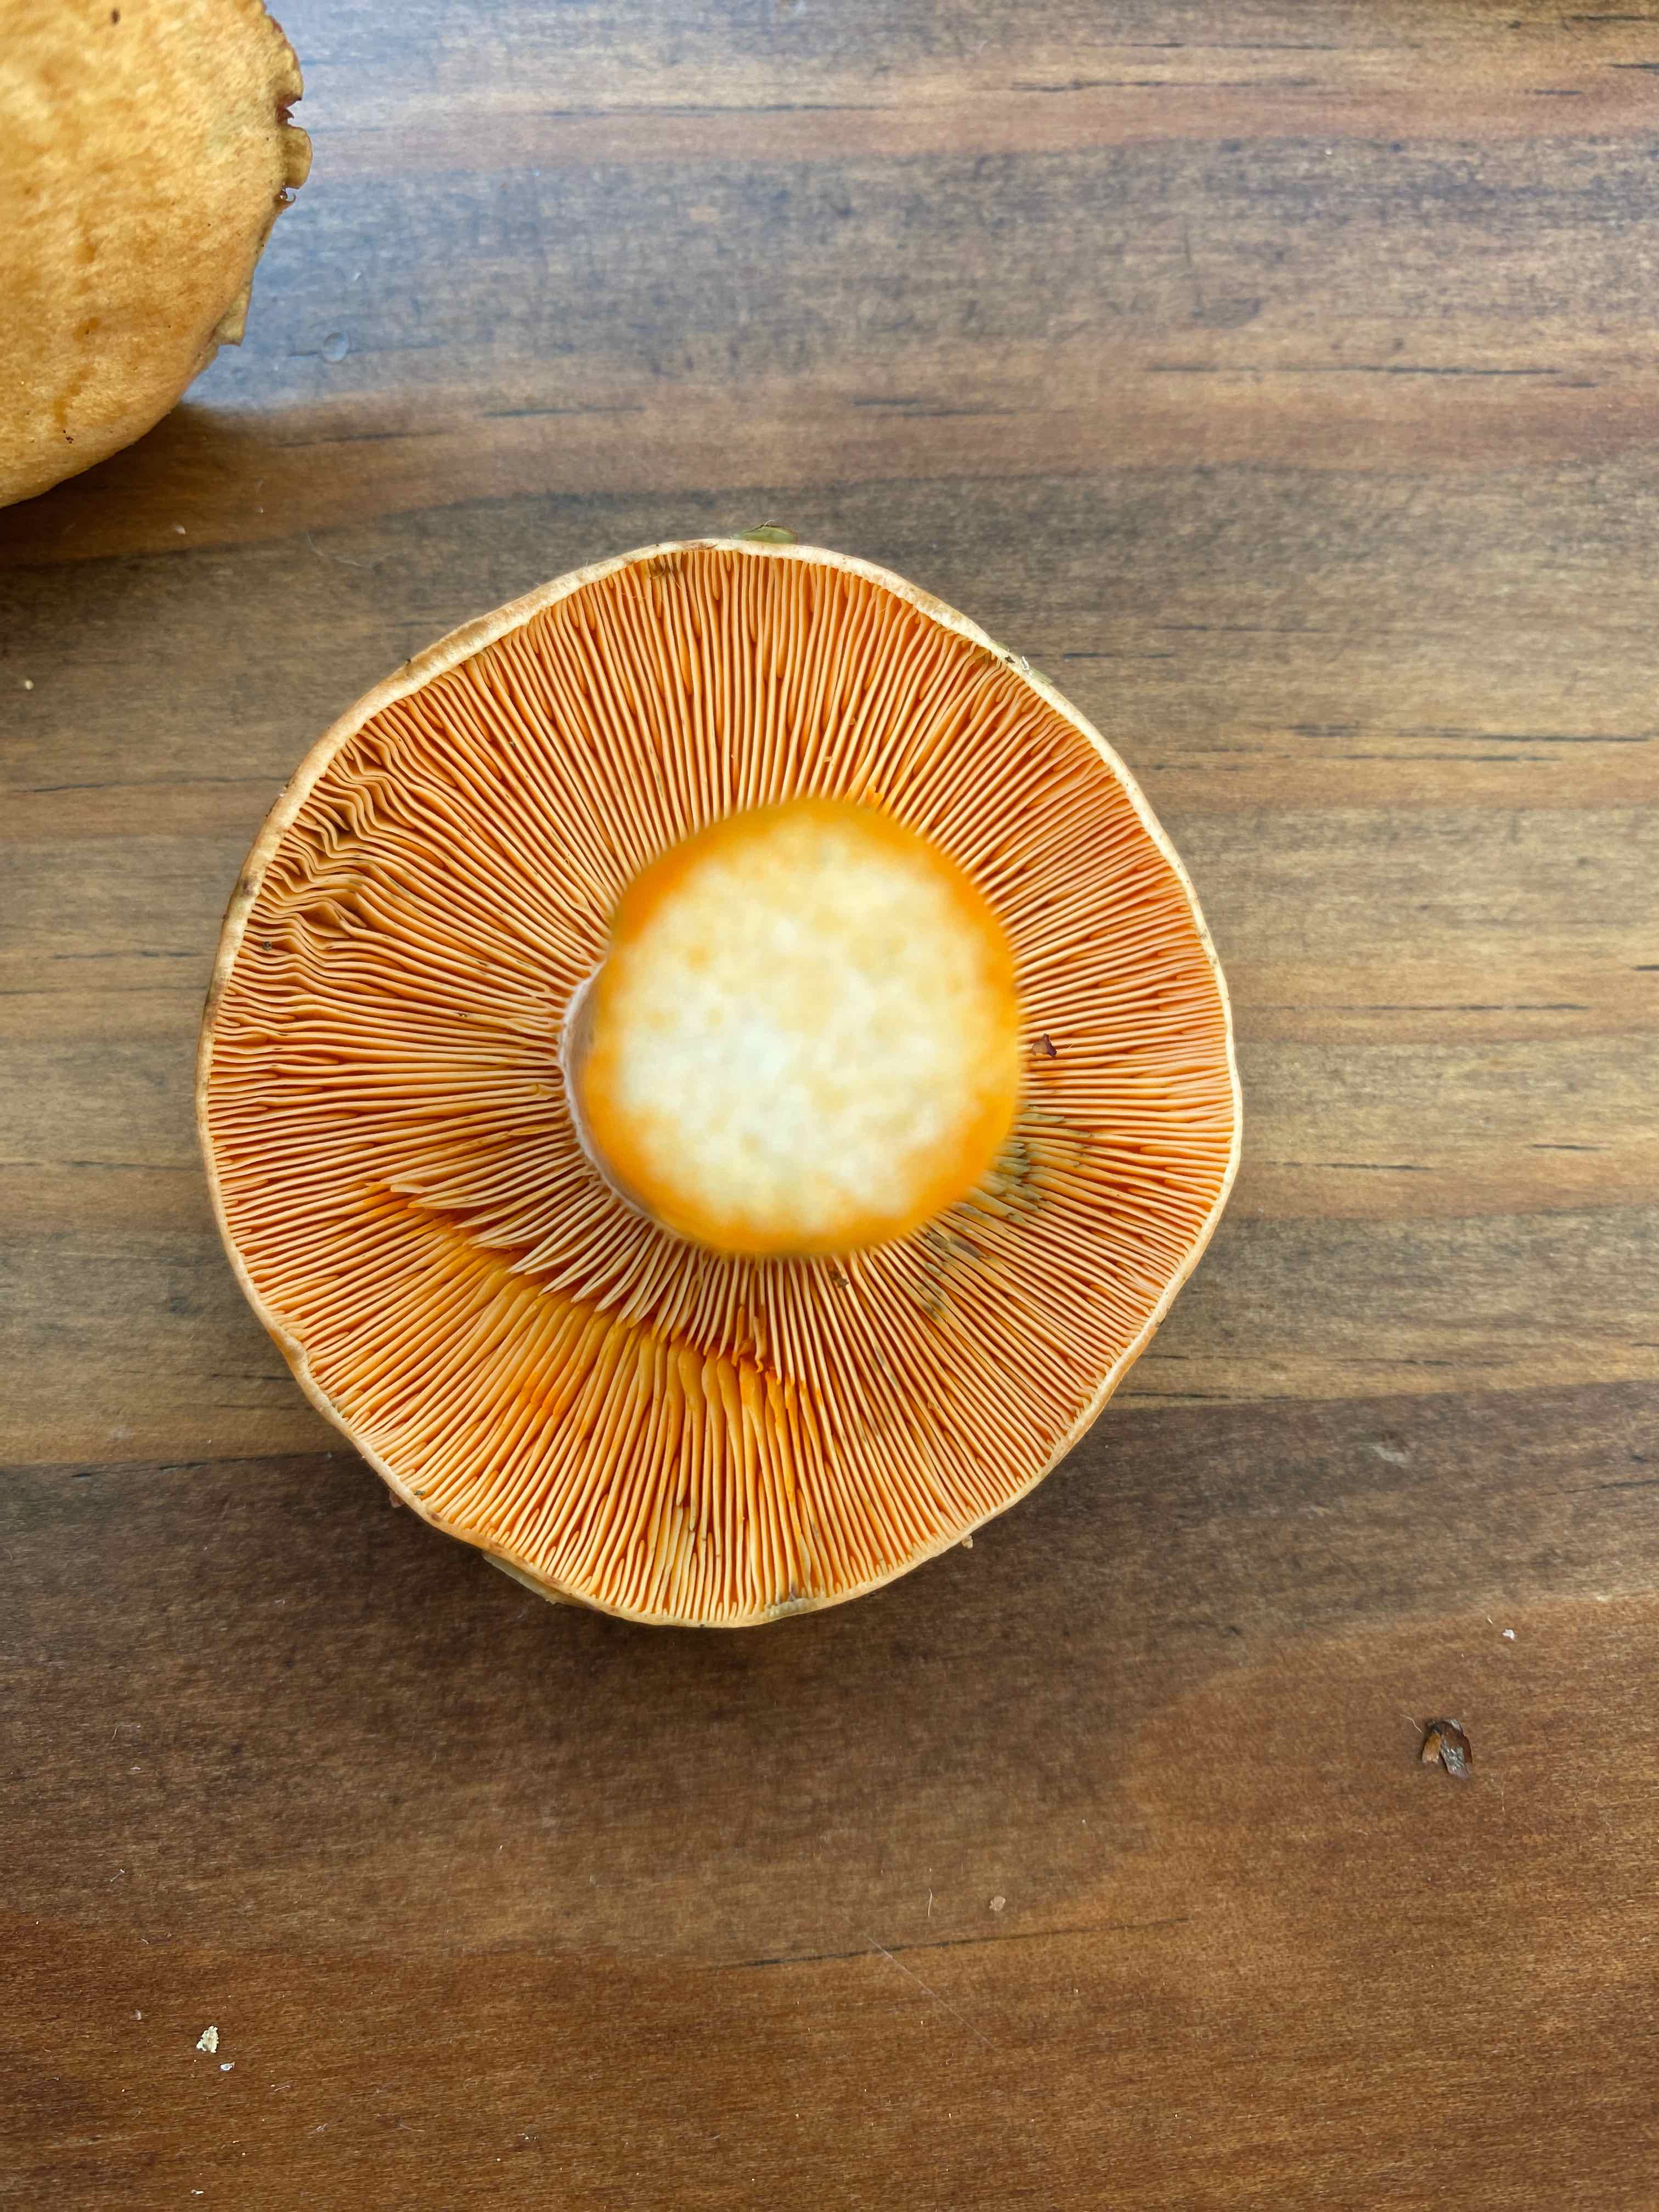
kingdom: Fungi
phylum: Basidiomycota
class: Agaricomycetes
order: Russulales
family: Russulaceae
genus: Lactarius
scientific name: Lactarius deterrimus
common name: gran-mælkehat
